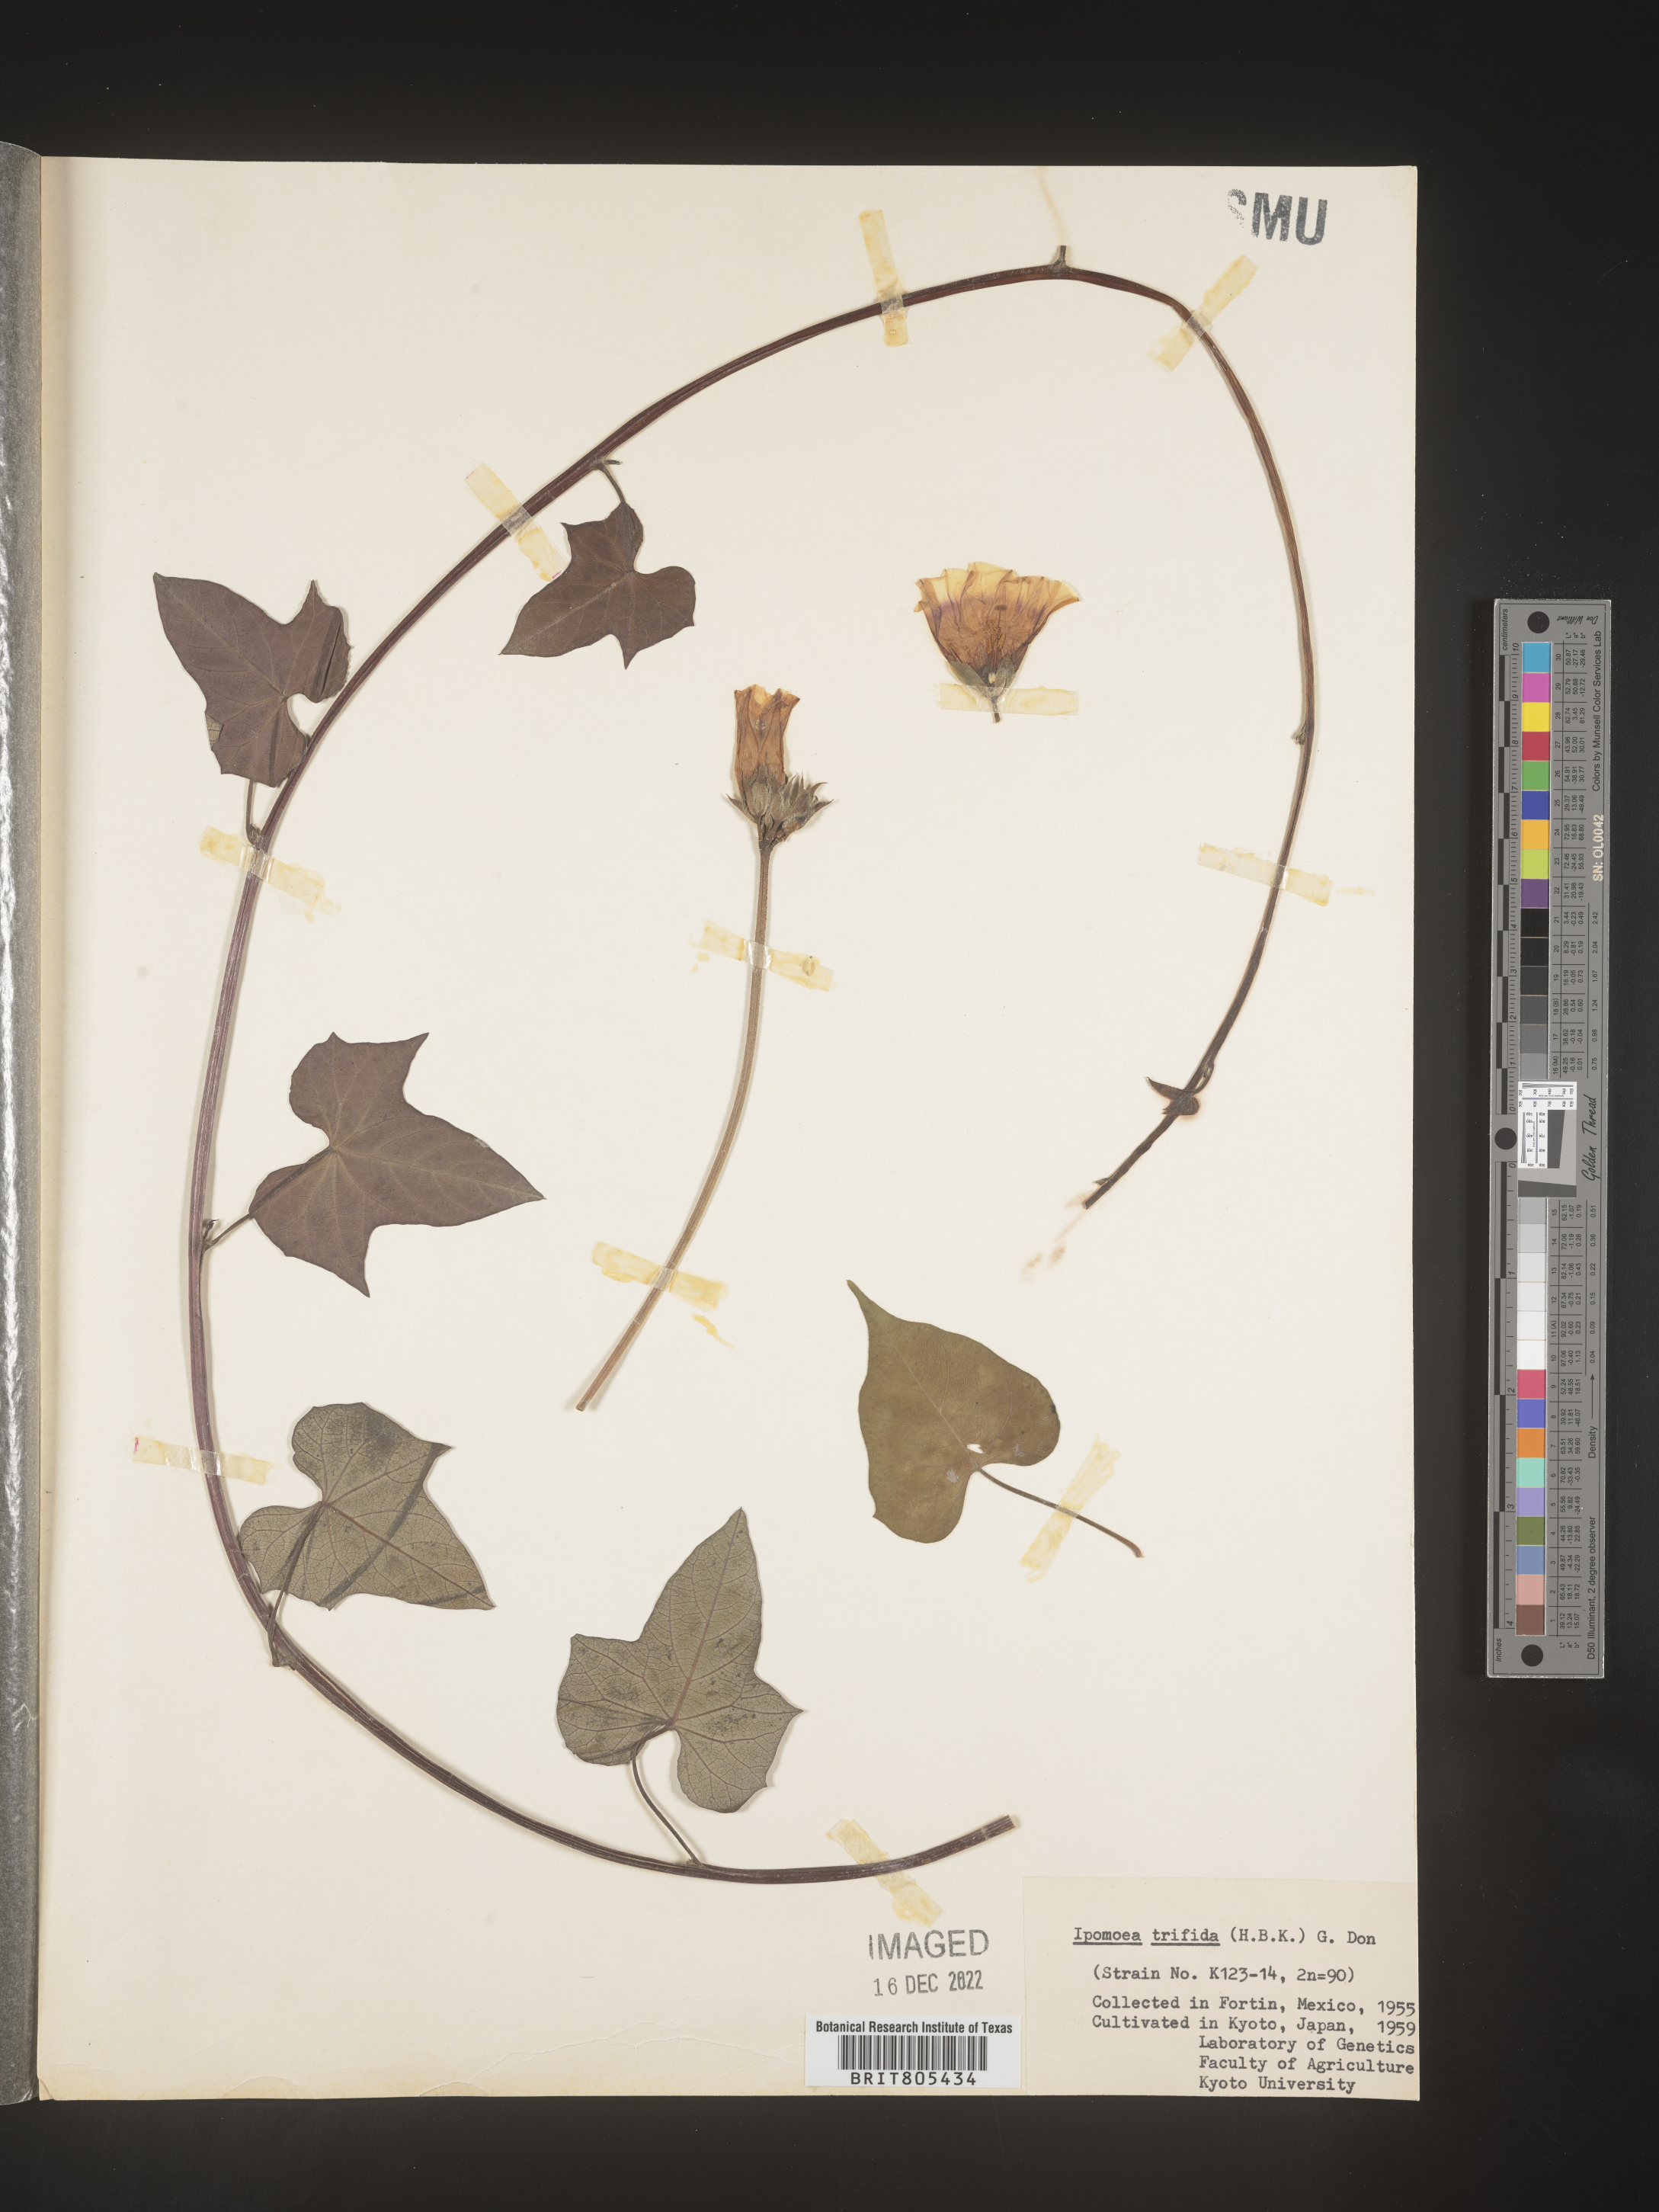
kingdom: Plantae
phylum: Tracheophyta
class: Magnoliopsida
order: Solanales
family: Convolvulaceae
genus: Ipomoea
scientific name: Ipomoea
